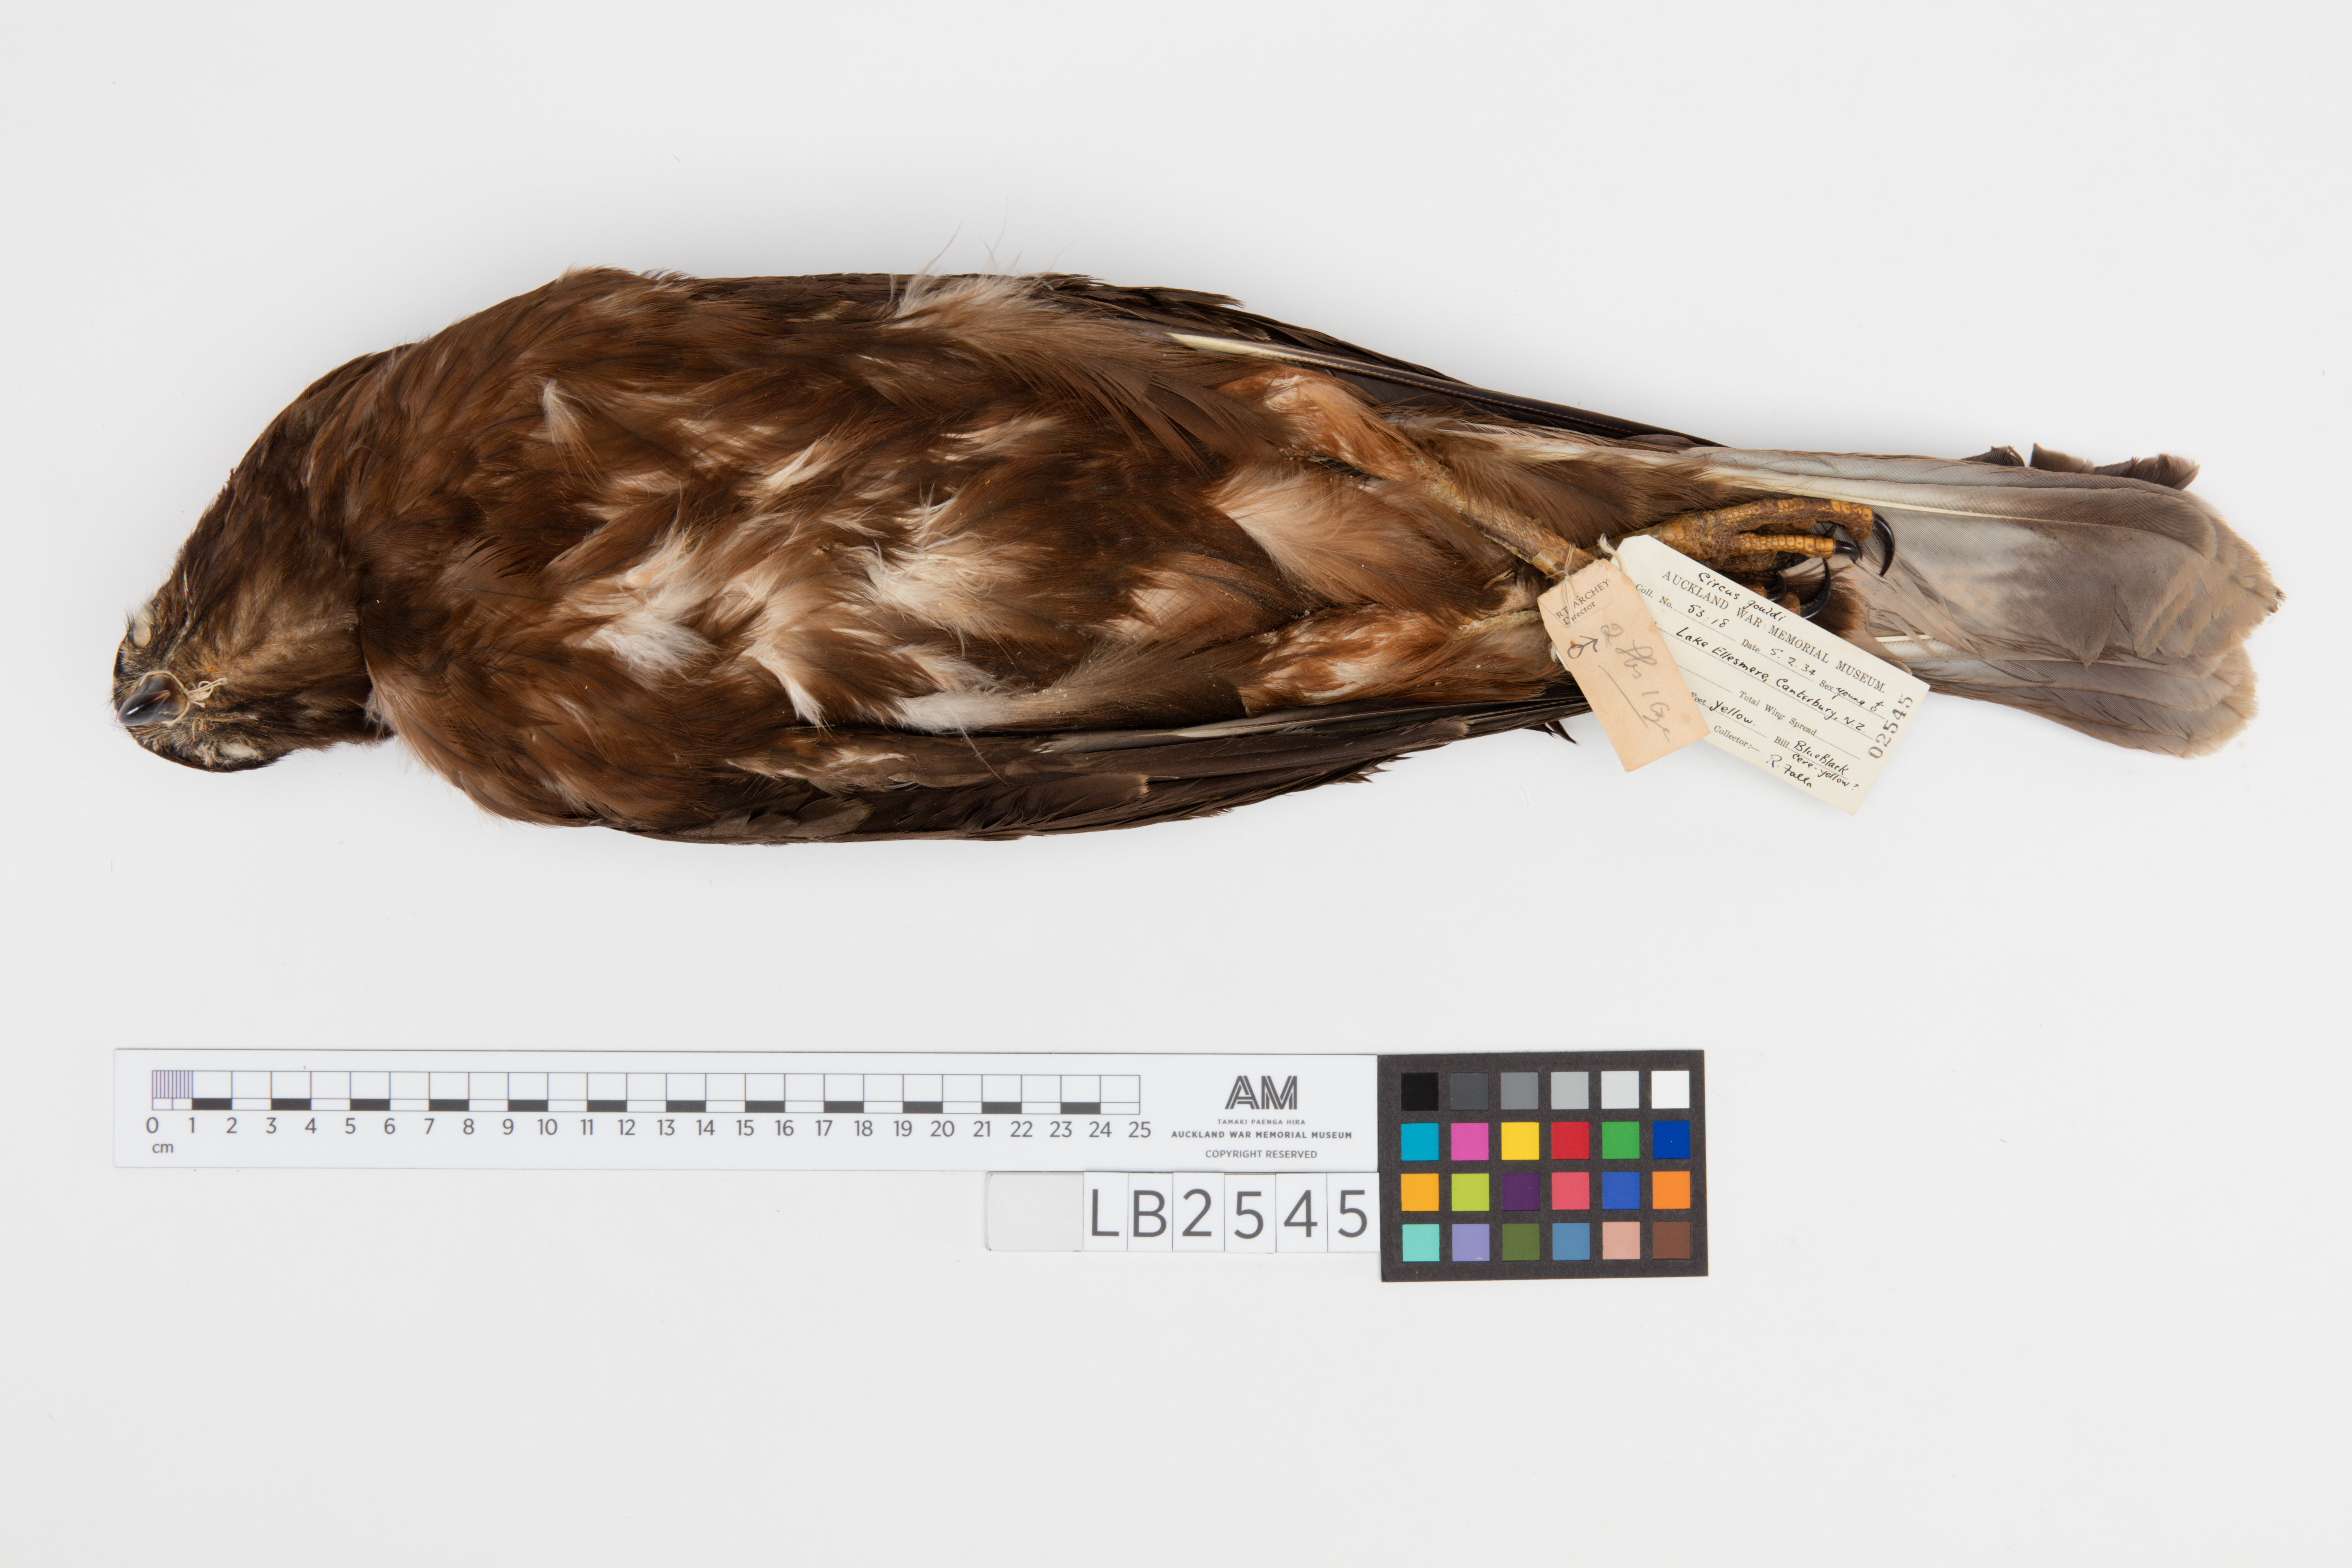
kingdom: Animalia
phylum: Chordata
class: Aves
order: Accipitriformes
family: Accipitridae
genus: Circus
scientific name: Circus approximans
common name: Swamp harrier
